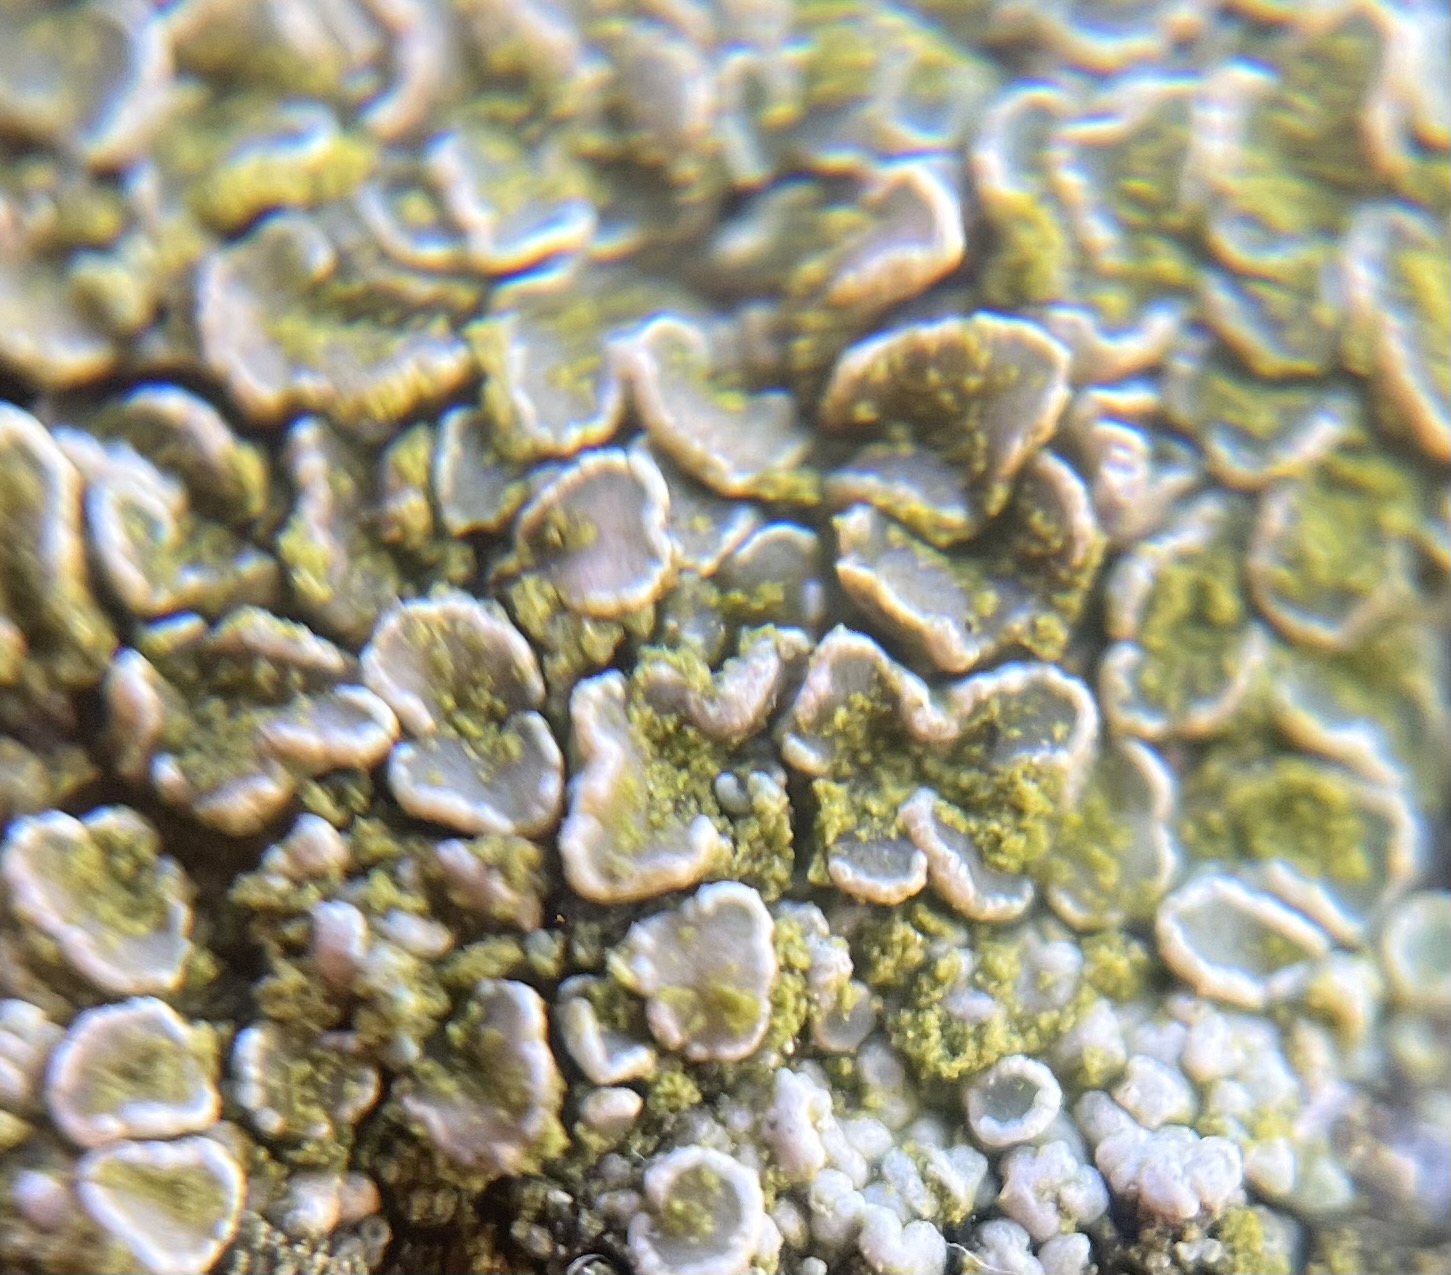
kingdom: Fungi
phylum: Ascomycota
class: Lecanoromycetes
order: Lecanorales
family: Lecanoraceae
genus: Lecanora
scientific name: Lecanora
